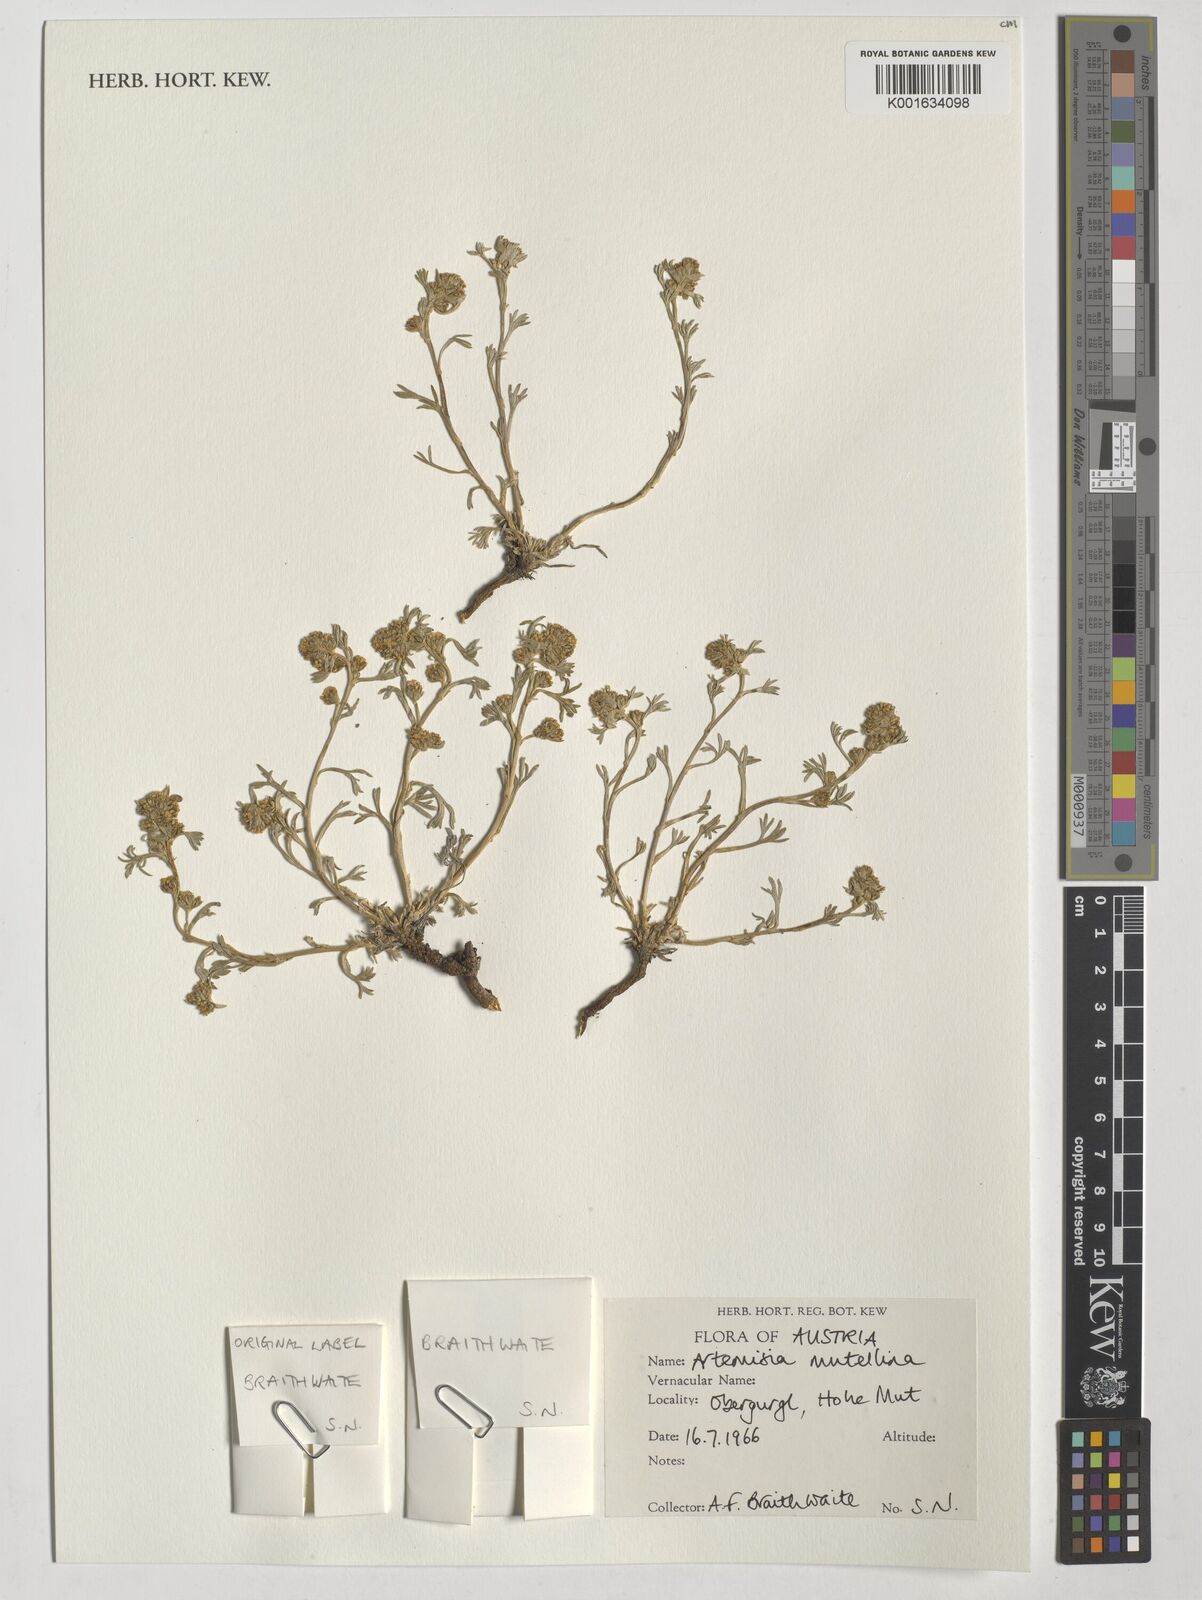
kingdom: Plantae
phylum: Tracheophyta
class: Magnoliopsida
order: Asterales
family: Asteraceae
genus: Artemisia
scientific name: Artemisia mutellina
